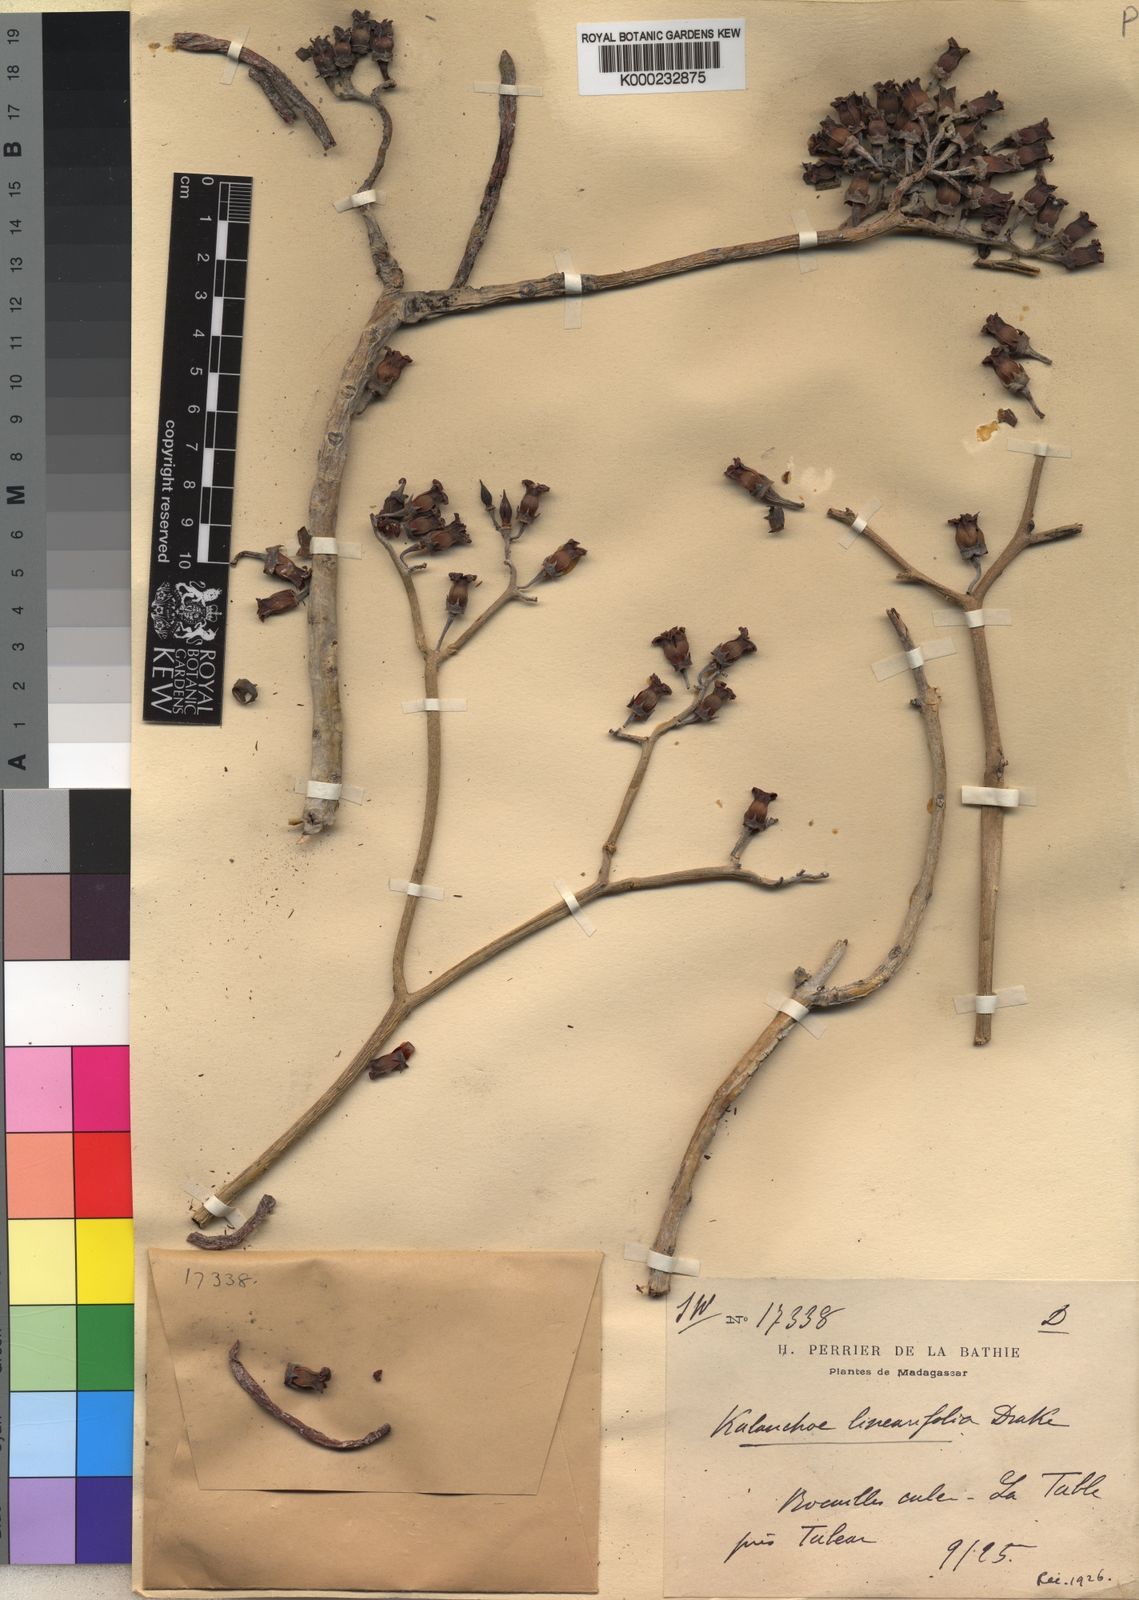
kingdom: Plantae
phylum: Tracheophyta
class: Magnoliopsida
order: Saxifragales
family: Crassulaceae
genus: Kalanchoe
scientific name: Kalanchoe linearifolia
